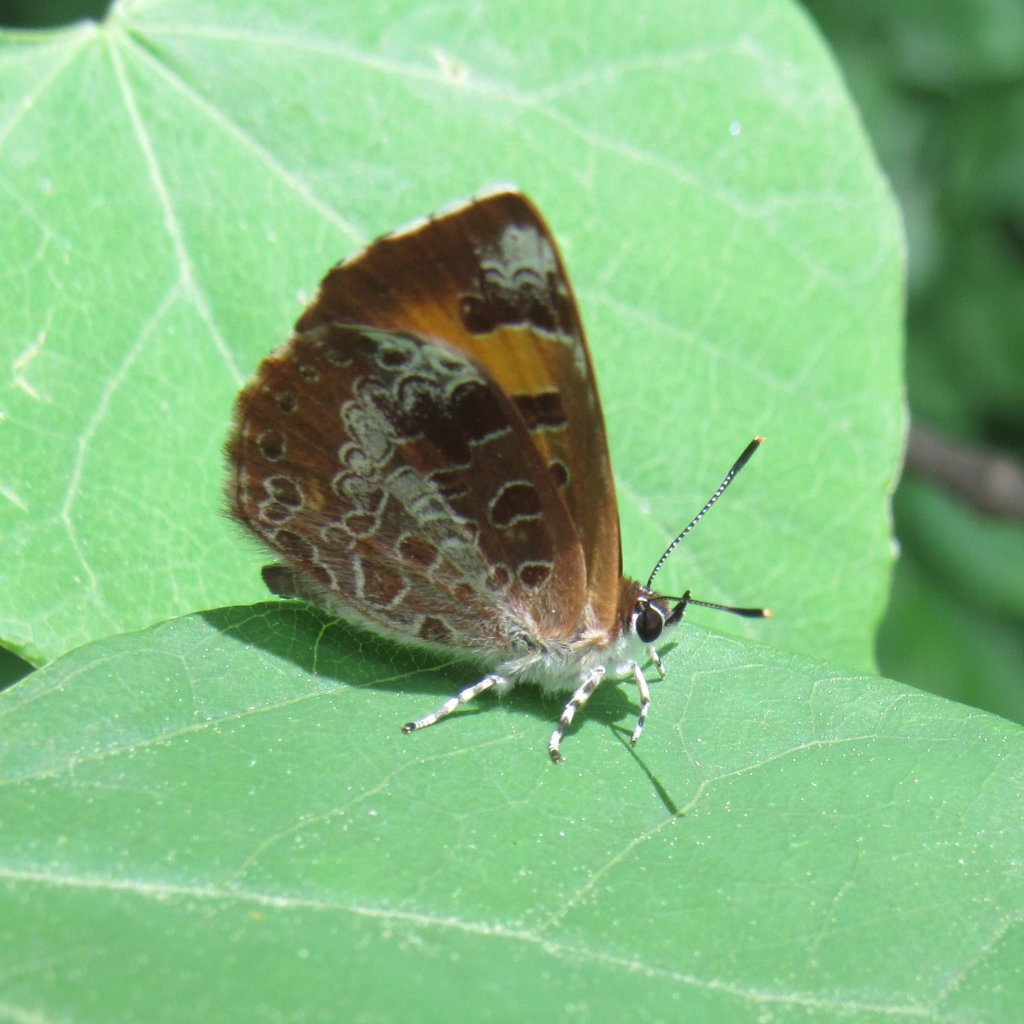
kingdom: Animalia
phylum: Arthropoda
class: Insecta
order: Lepidoptera
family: Lycaenidae
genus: Feniseca
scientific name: Feniseca tarquinius
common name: Harvester
